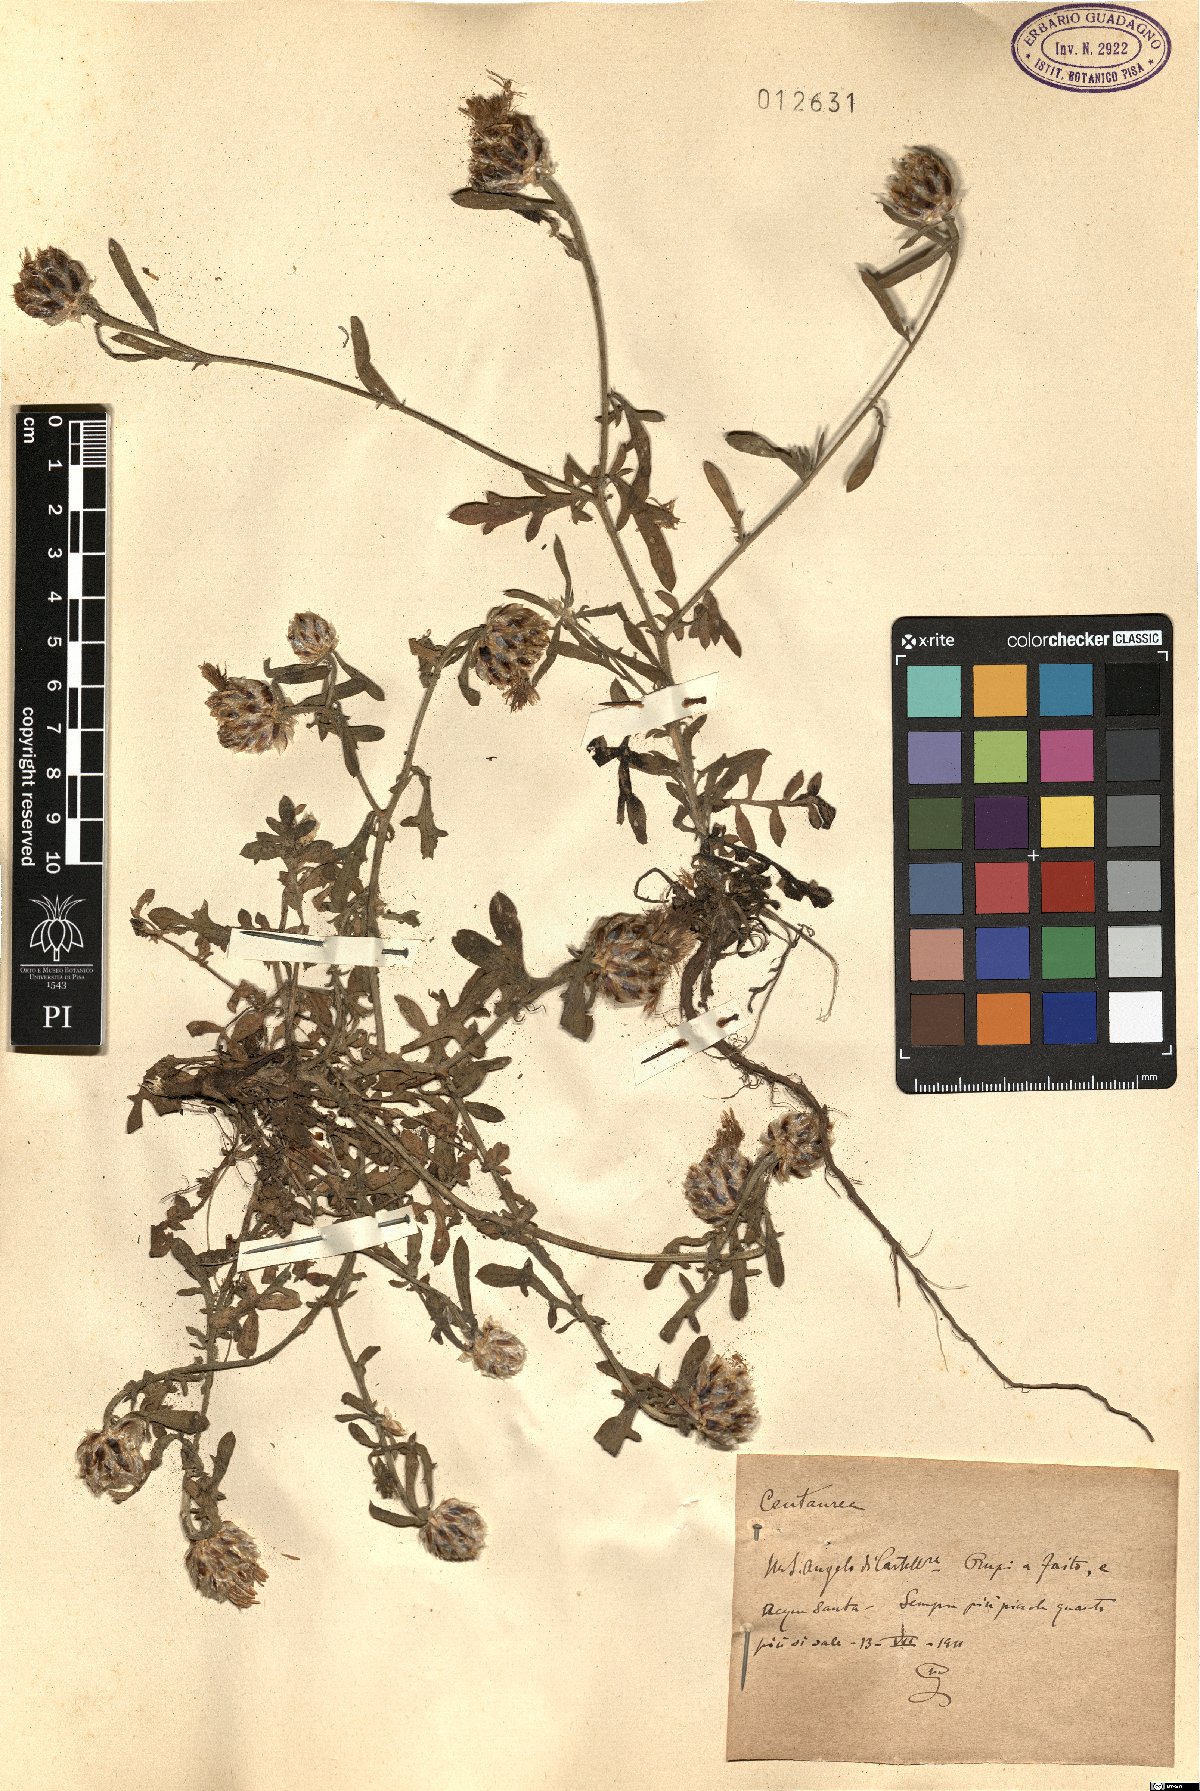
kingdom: Plantae
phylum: Tracheophyta
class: Magnoliopsida
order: Asterales
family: Asteraceae
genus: Centaurea
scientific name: Centaurea
